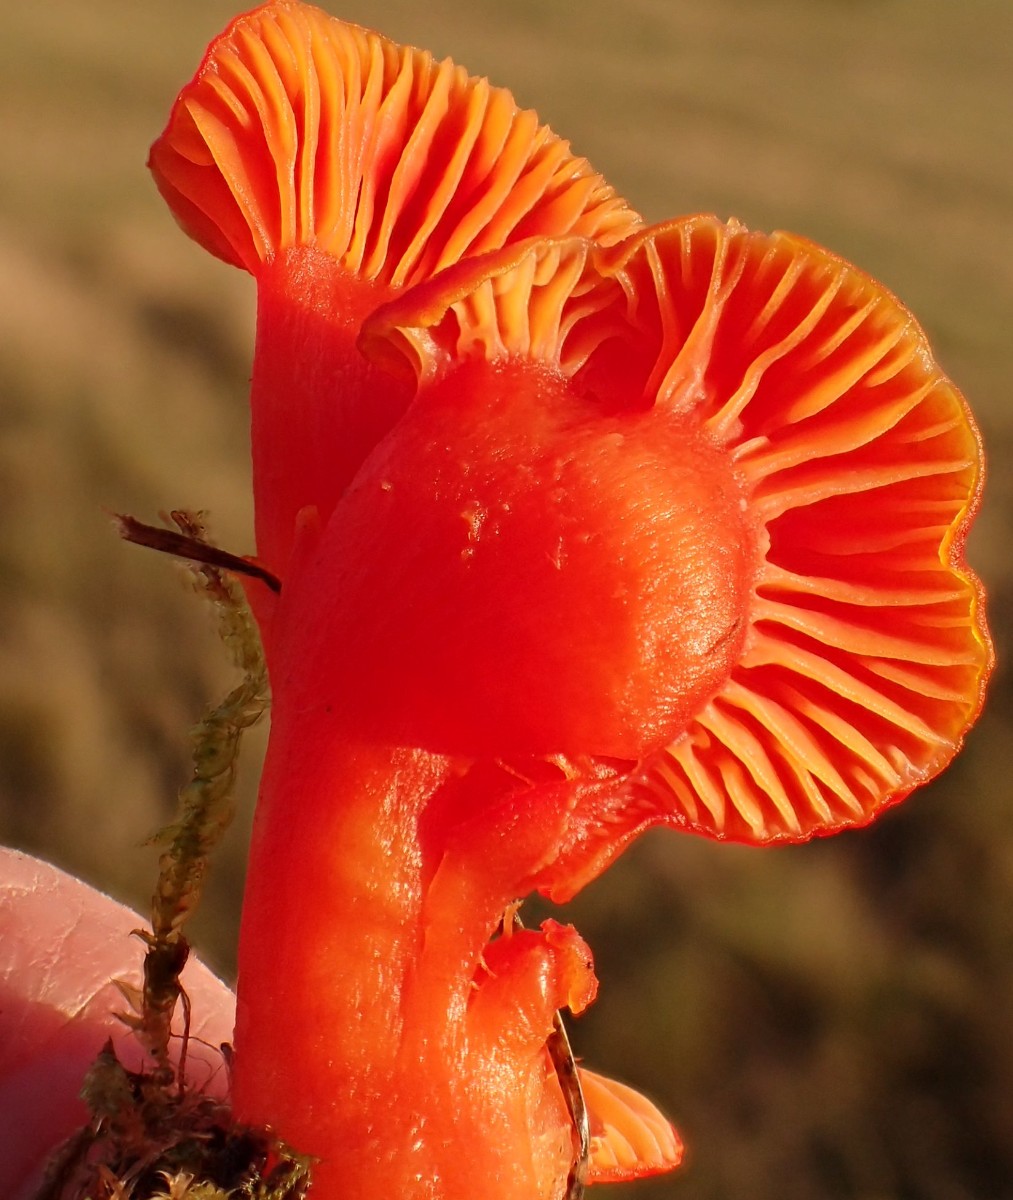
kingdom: Fungi
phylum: Basidiomycota
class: Agaricomycetes
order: Agaricales
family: Hygrophoraceae
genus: Hygrocybe
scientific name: Hygrocybe miniata
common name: mønje-vokshat
